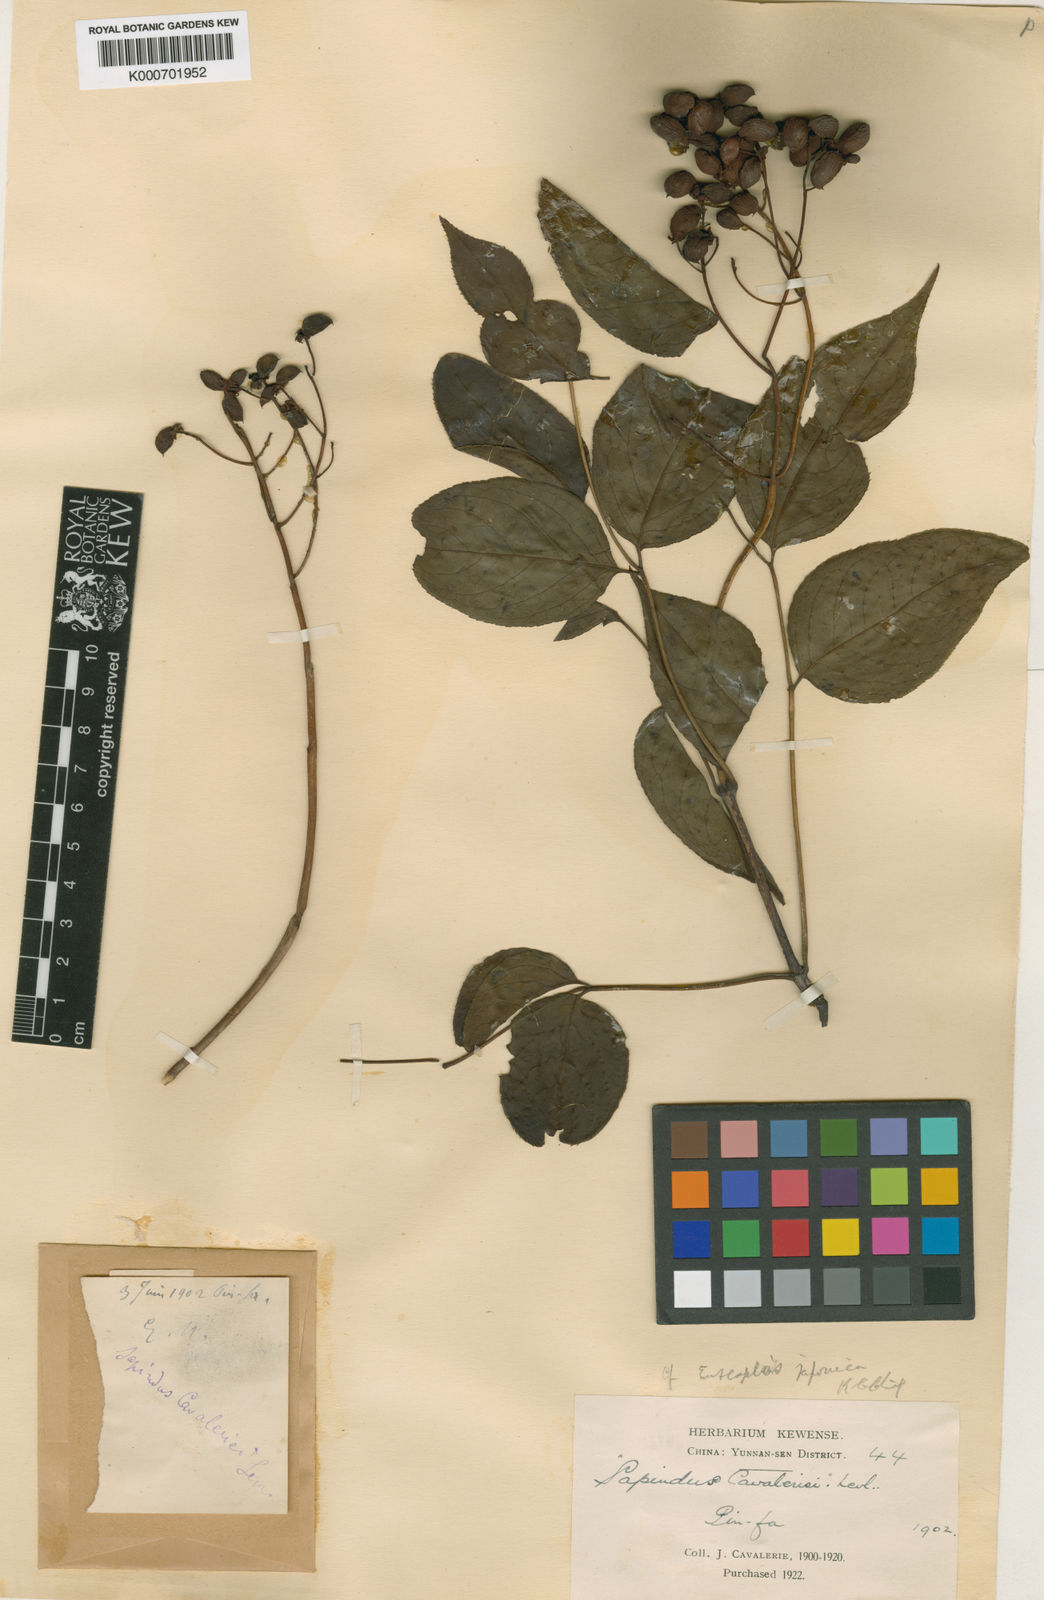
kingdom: Plantae
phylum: Tracheophyta
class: Magnoliopsida
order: Sapindales
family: Sapindaceae
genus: Sapindus
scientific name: Sapindus
